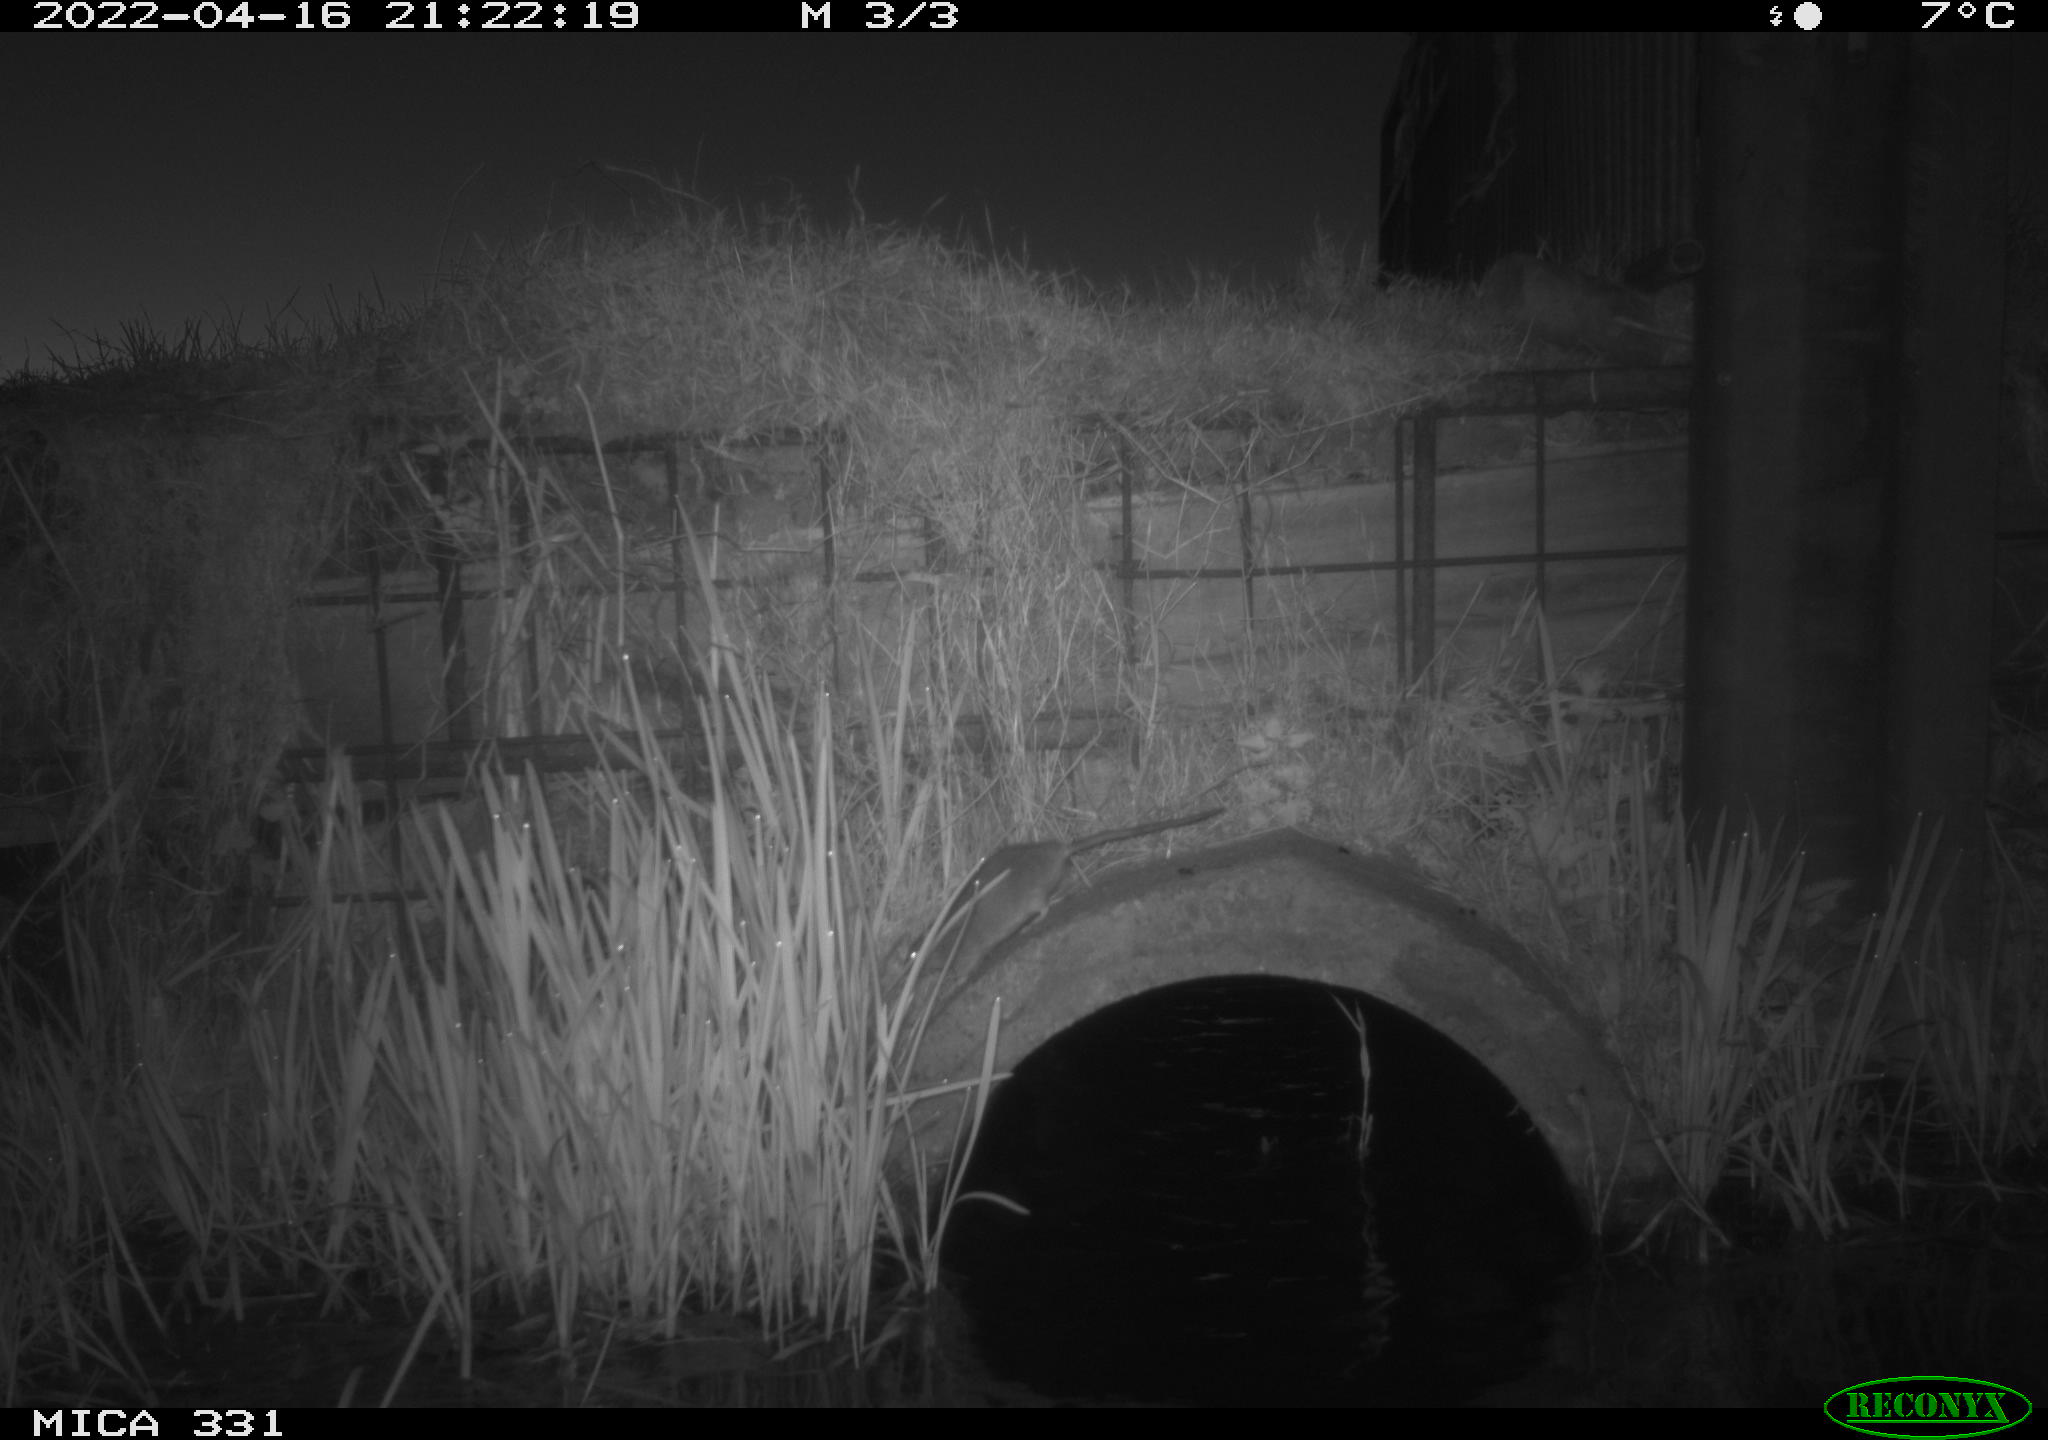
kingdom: Animalia
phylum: Chordata
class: Mammalia
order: Rodentia
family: Muridae
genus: Rattus
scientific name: Rattus norvegicus
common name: Brown rat
